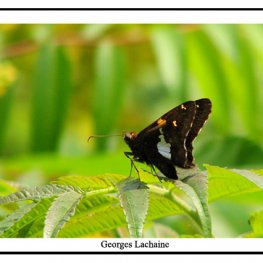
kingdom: Animalia
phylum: Arthropoda
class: Insecta
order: Lepidoptera
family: Hesperiidae
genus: Epargyreus
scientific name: Epargyreus clarus
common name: Silver-spotted Skipper
